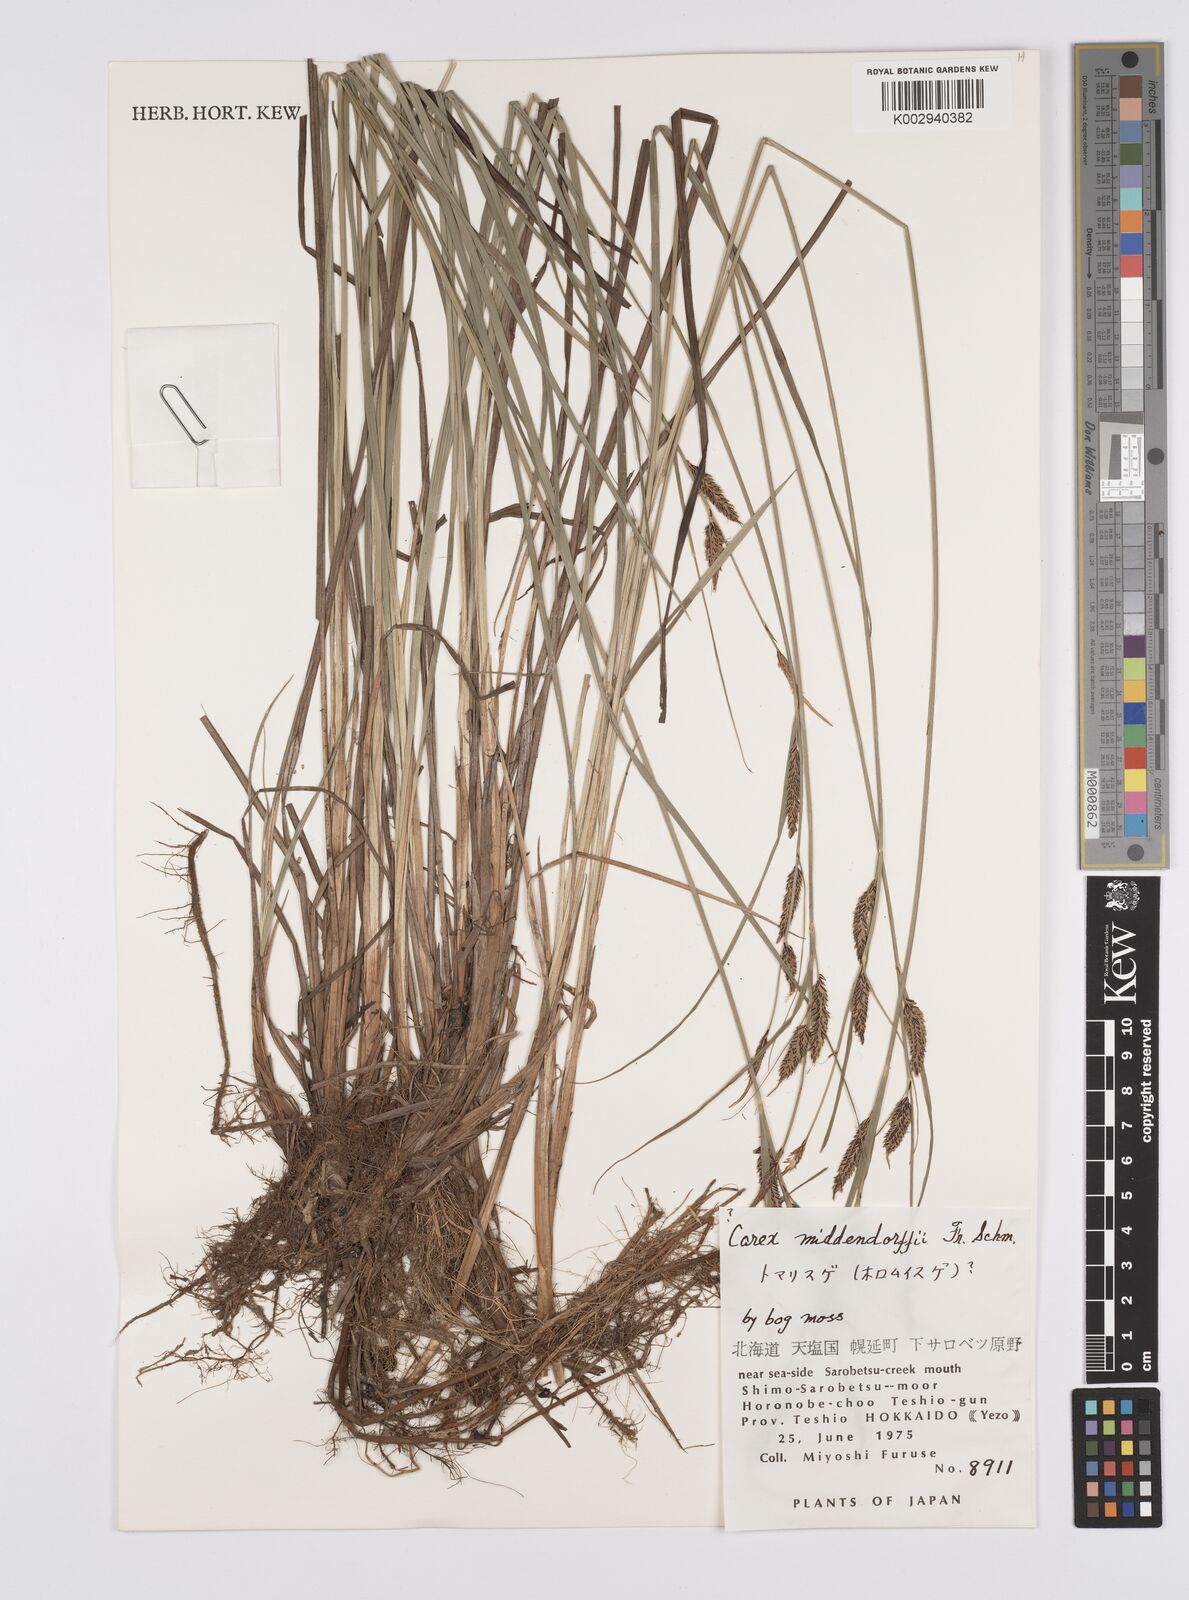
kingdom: Plantae
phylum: Tracheophyta
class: Liliopsida
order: Poales
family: Cyperaceae
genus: Carex
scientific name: Carex middendorffii
